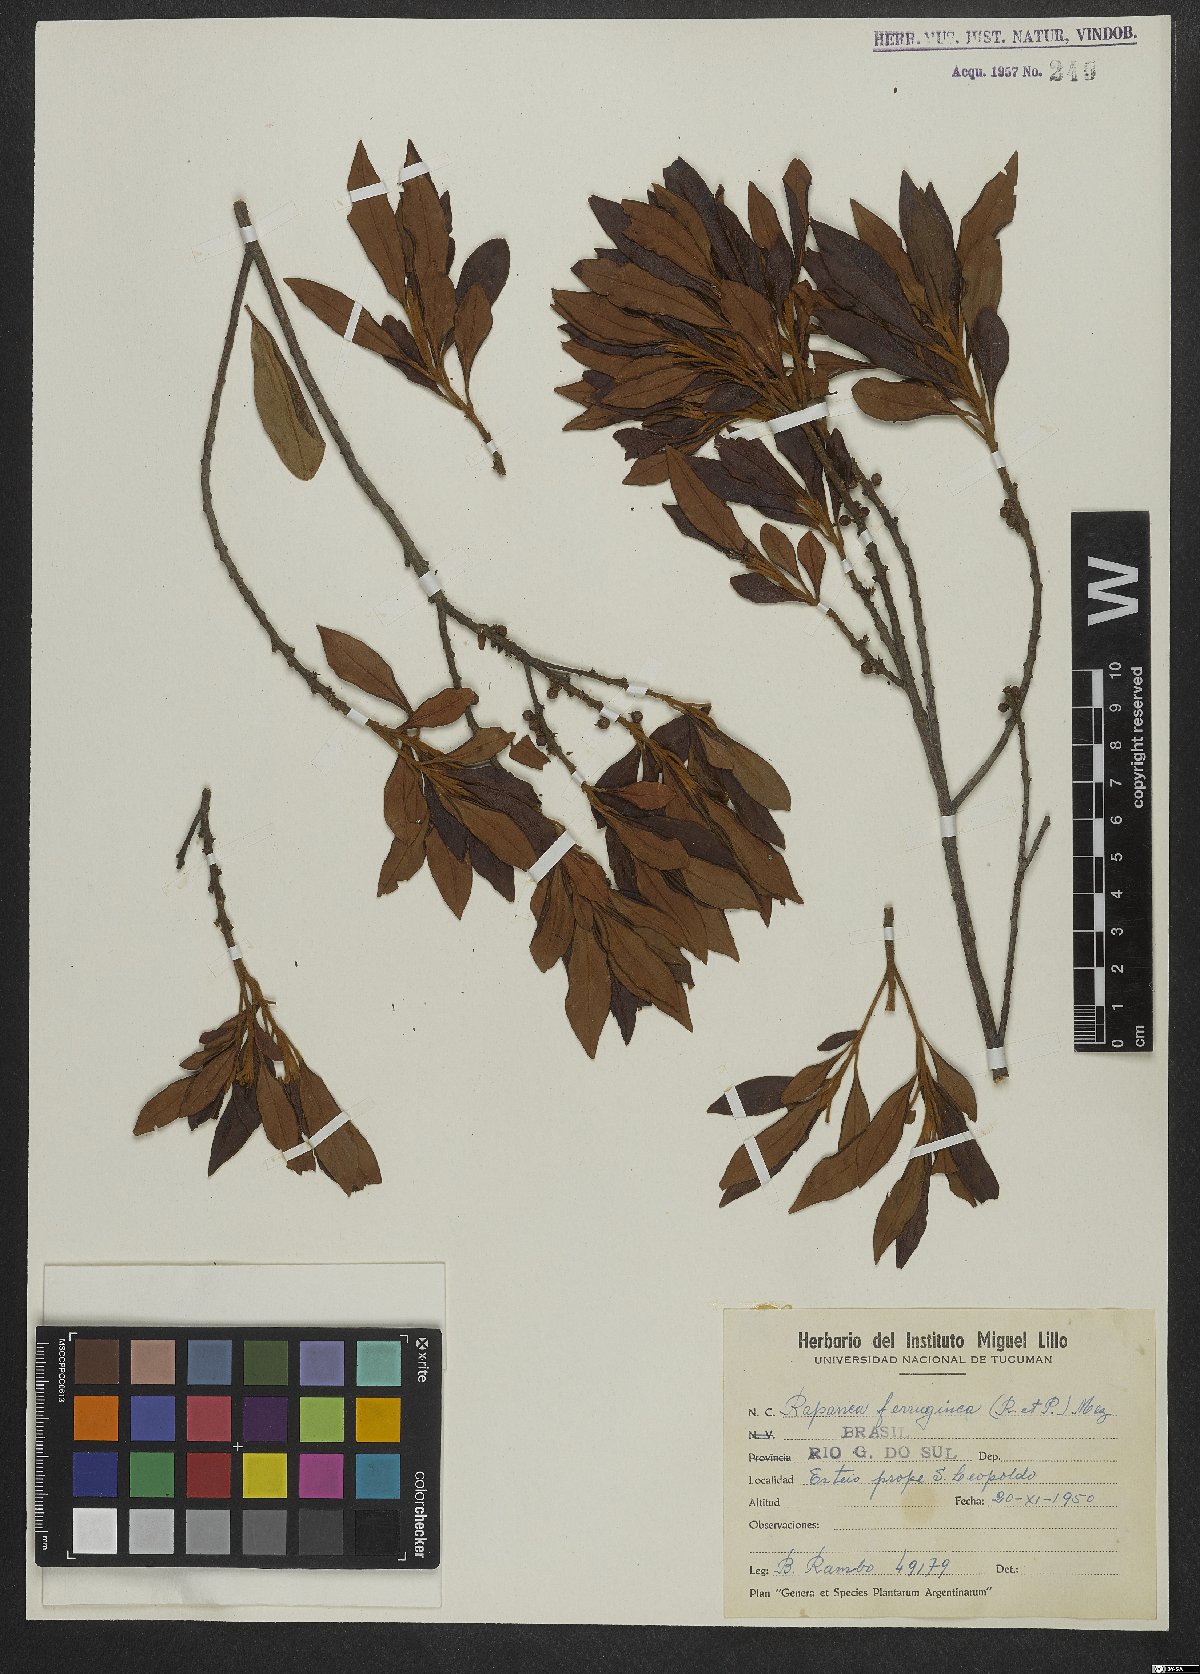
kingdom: Plantae
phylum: Tracheophyta
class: Magnoliopsida
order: Ericales
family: Primulaceae
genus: Myrsine
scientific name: Myrsine coriacea
